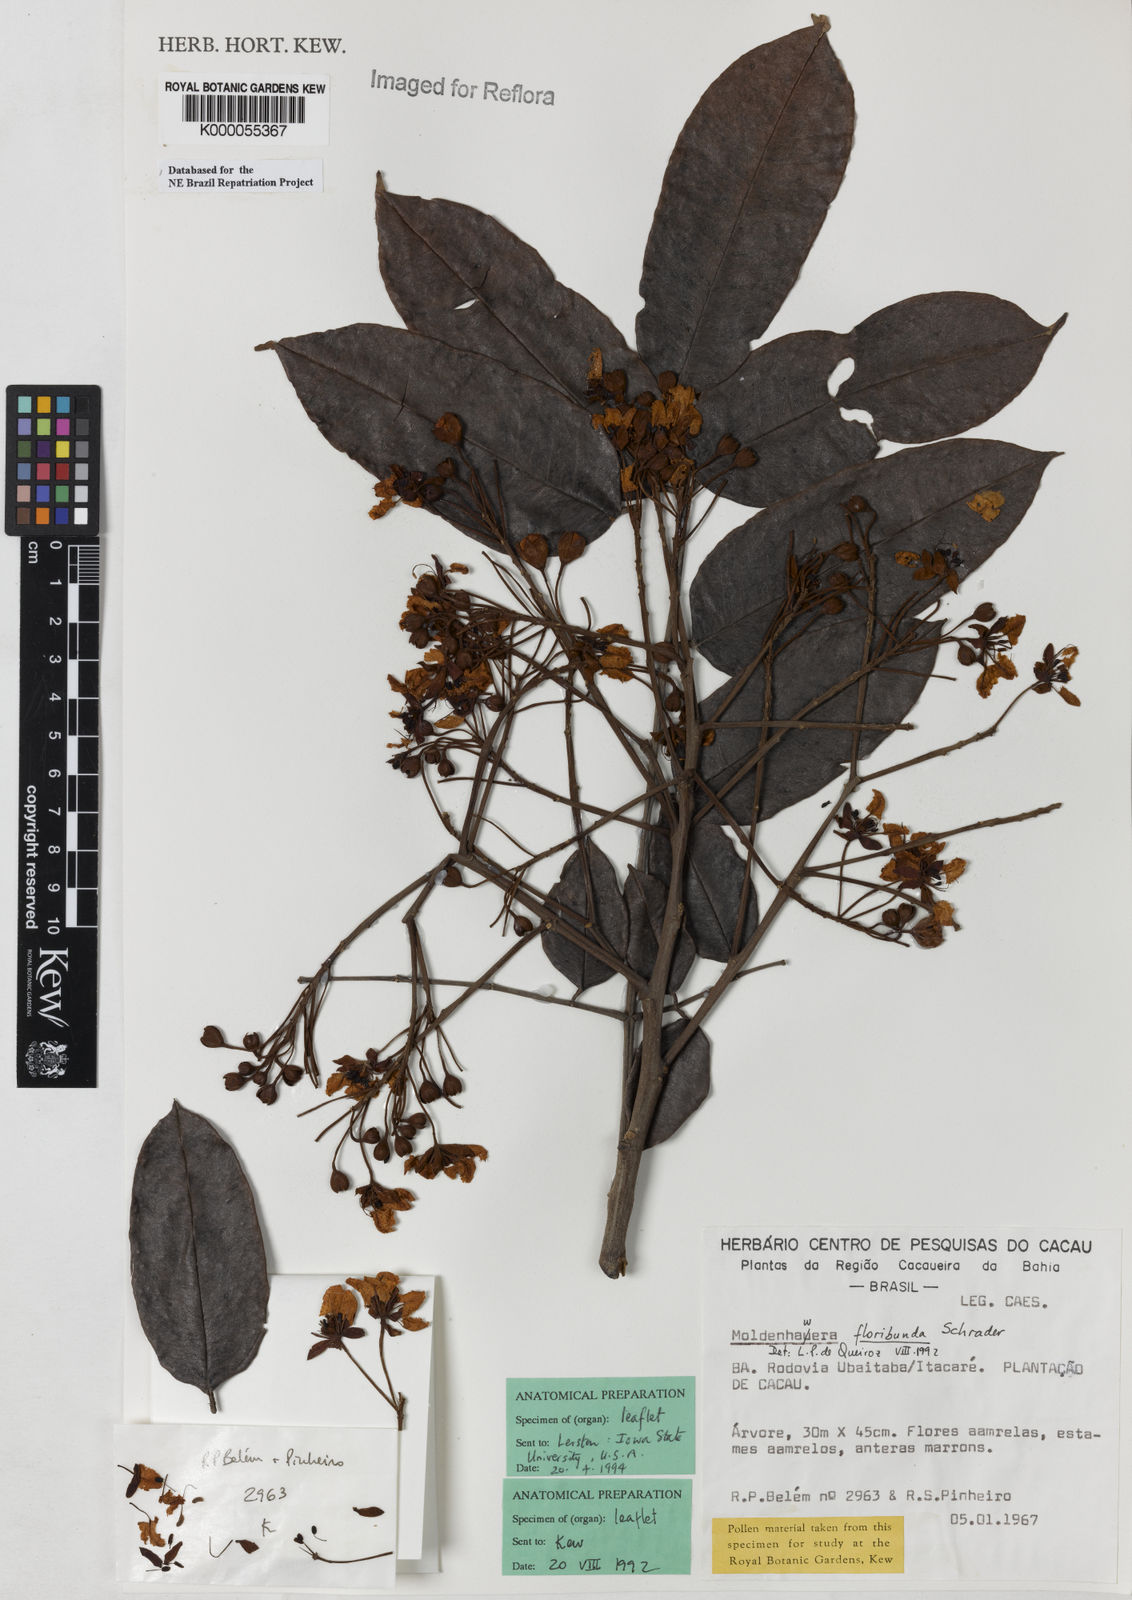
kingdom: Plantae
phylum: Tracheophyta
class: Magnoliopsida
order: Fabales
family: Fabaceae
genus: Moldenhawera
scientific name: Moldenhawera floribunda
